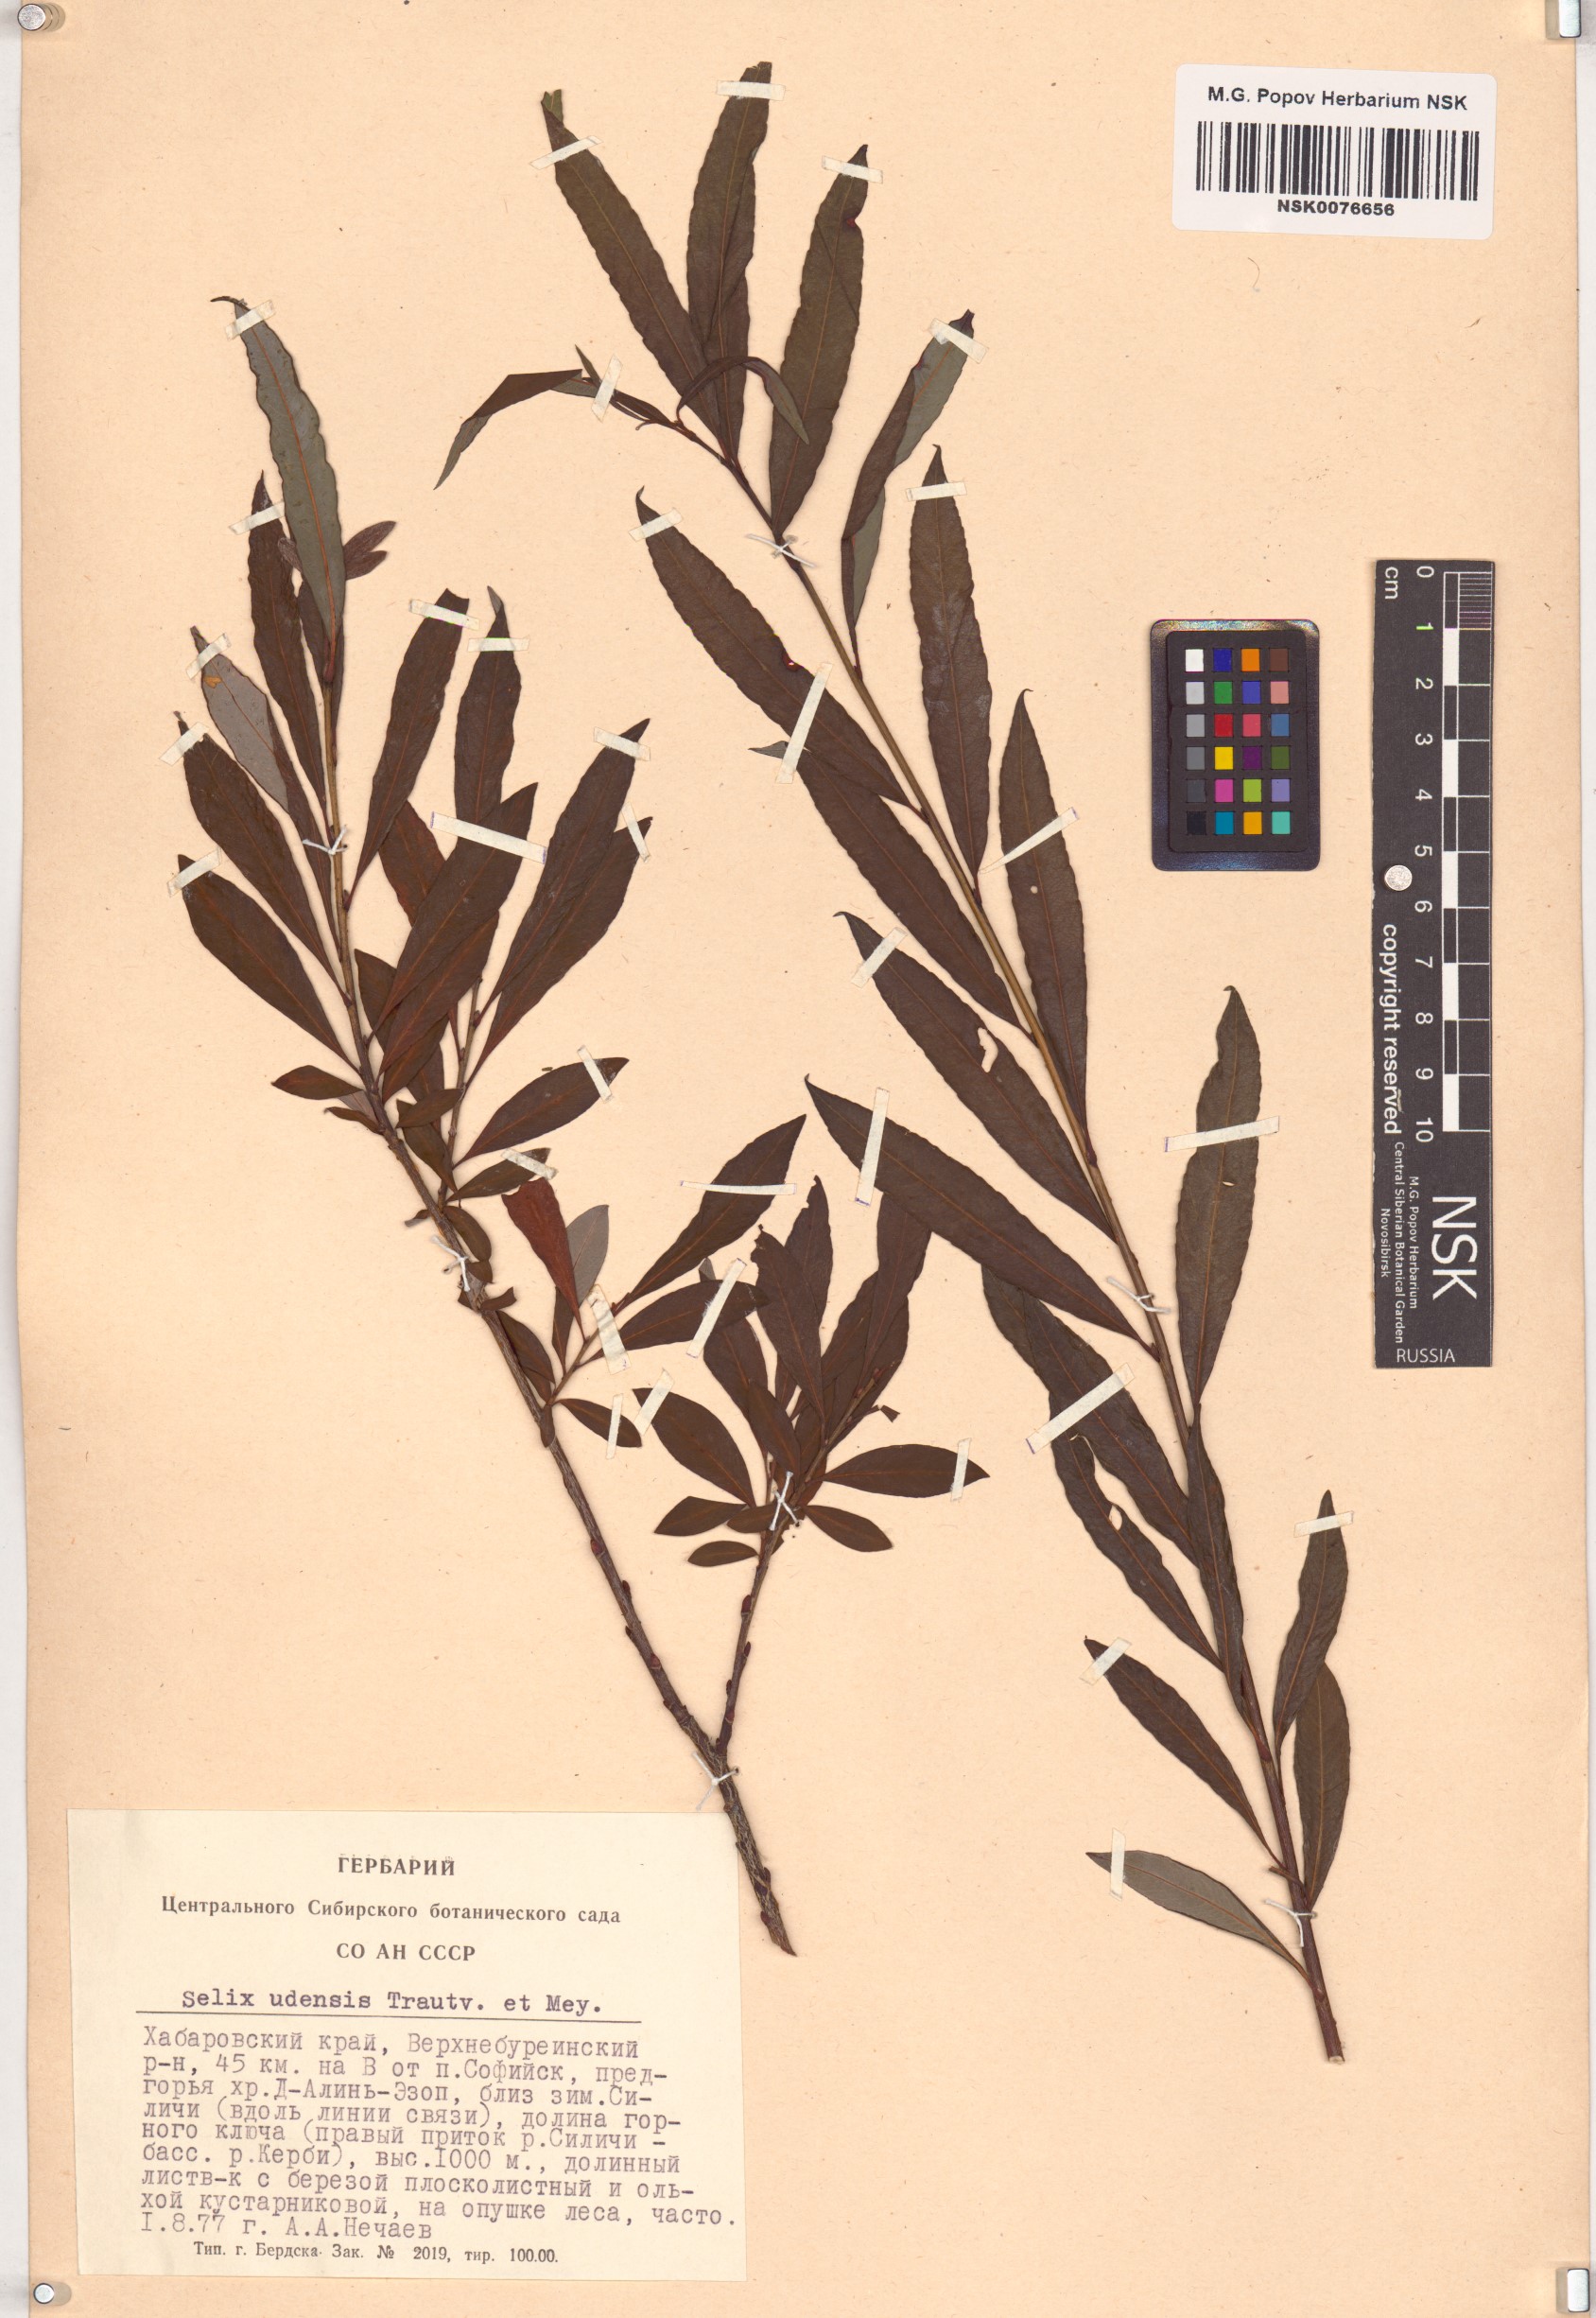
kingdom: Plantae
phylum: Tracheophyta
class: Magnoliopsida
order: Malpighiales
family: Salicaceae
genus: Salix
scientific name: Salix udensis
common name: Sachalin willow
